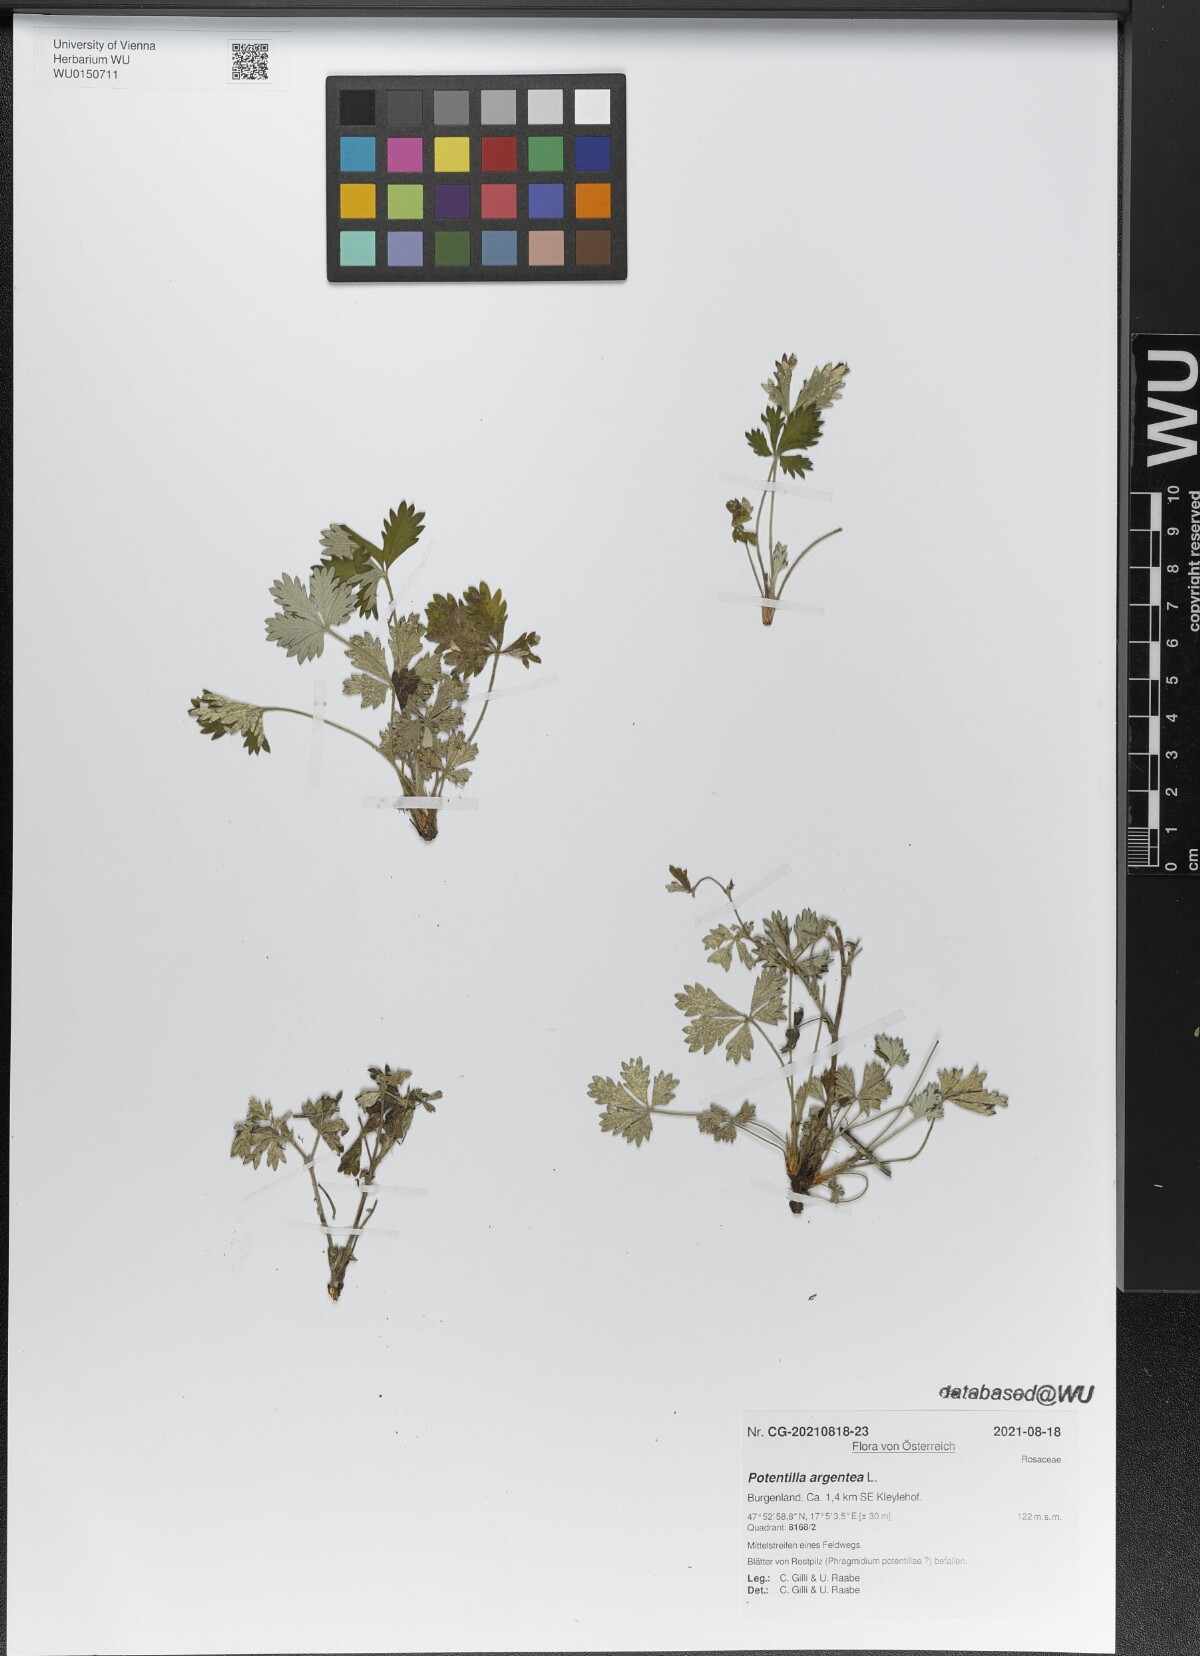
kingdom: Plantae
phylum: Tracheophyta
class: Magnoliopsida
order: Rosales
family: Rosaceae
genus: Potentilla
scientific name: Potentilla argentea
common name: Hoary cinquefoil
